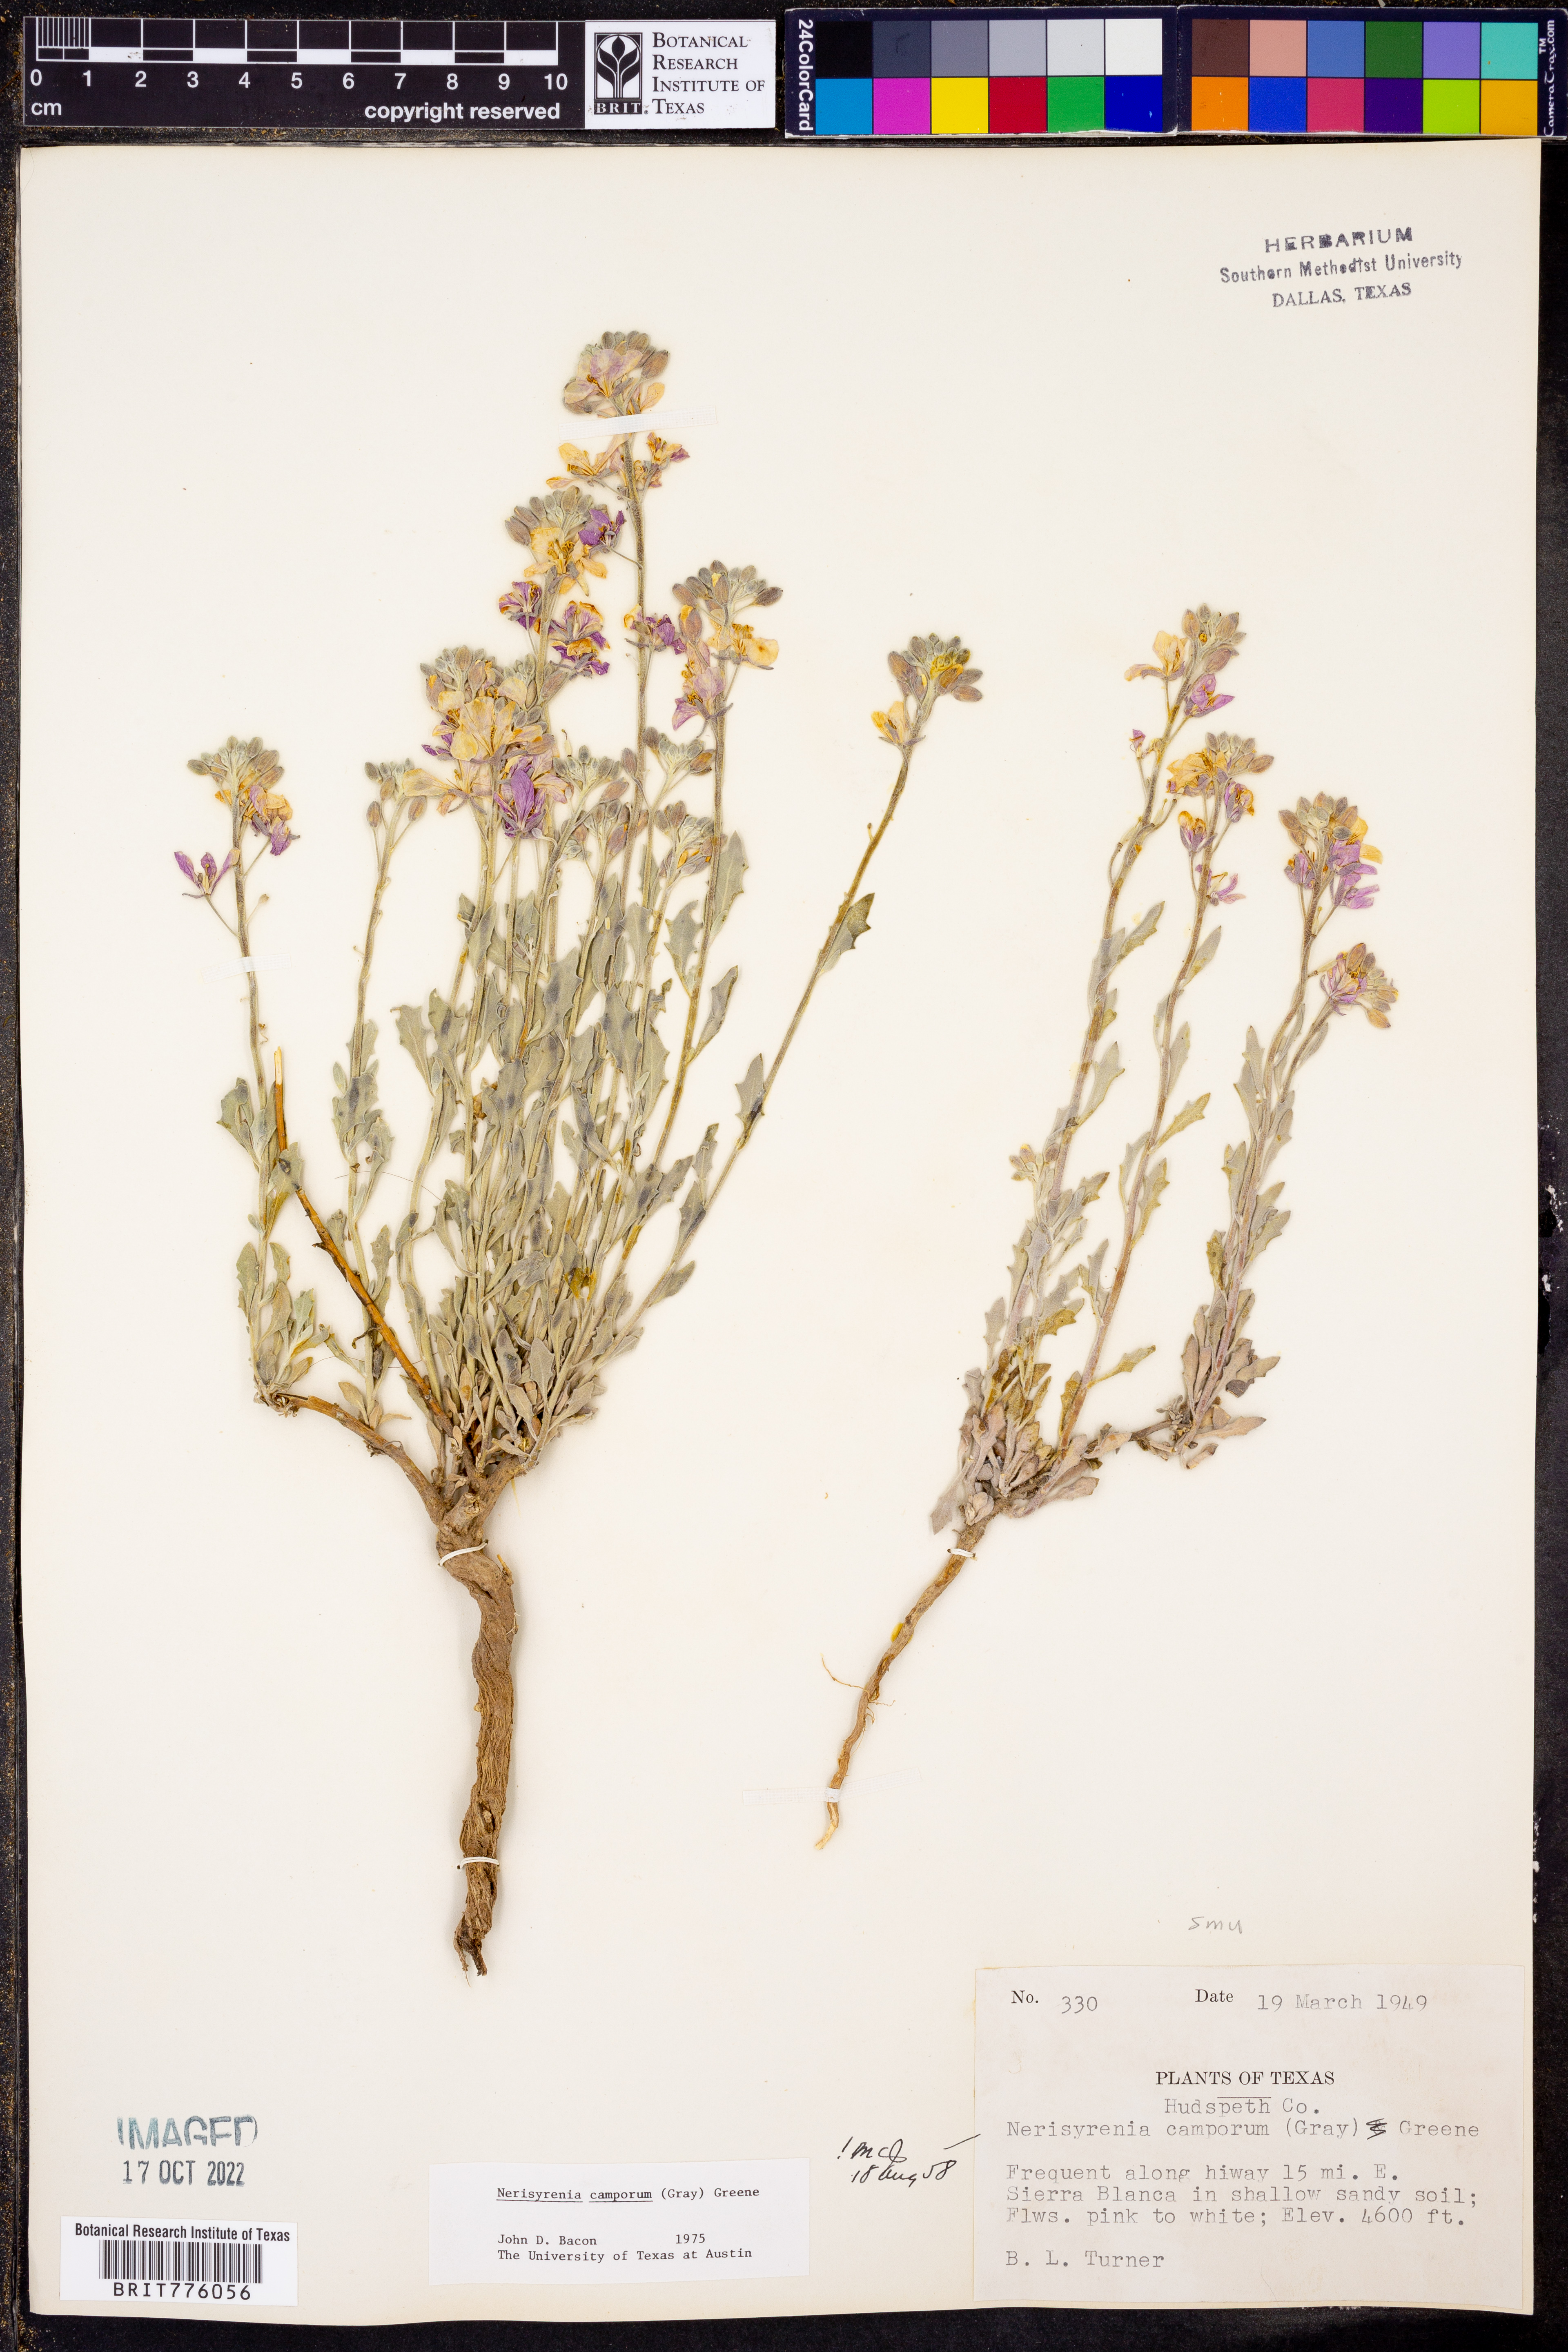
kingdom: Plantae
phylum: Tracheophyta
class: Magnoliopsida
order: Brassicales
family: Brassicaceae
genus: Nerisyrenia
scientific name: Nerisyrenia camporum
